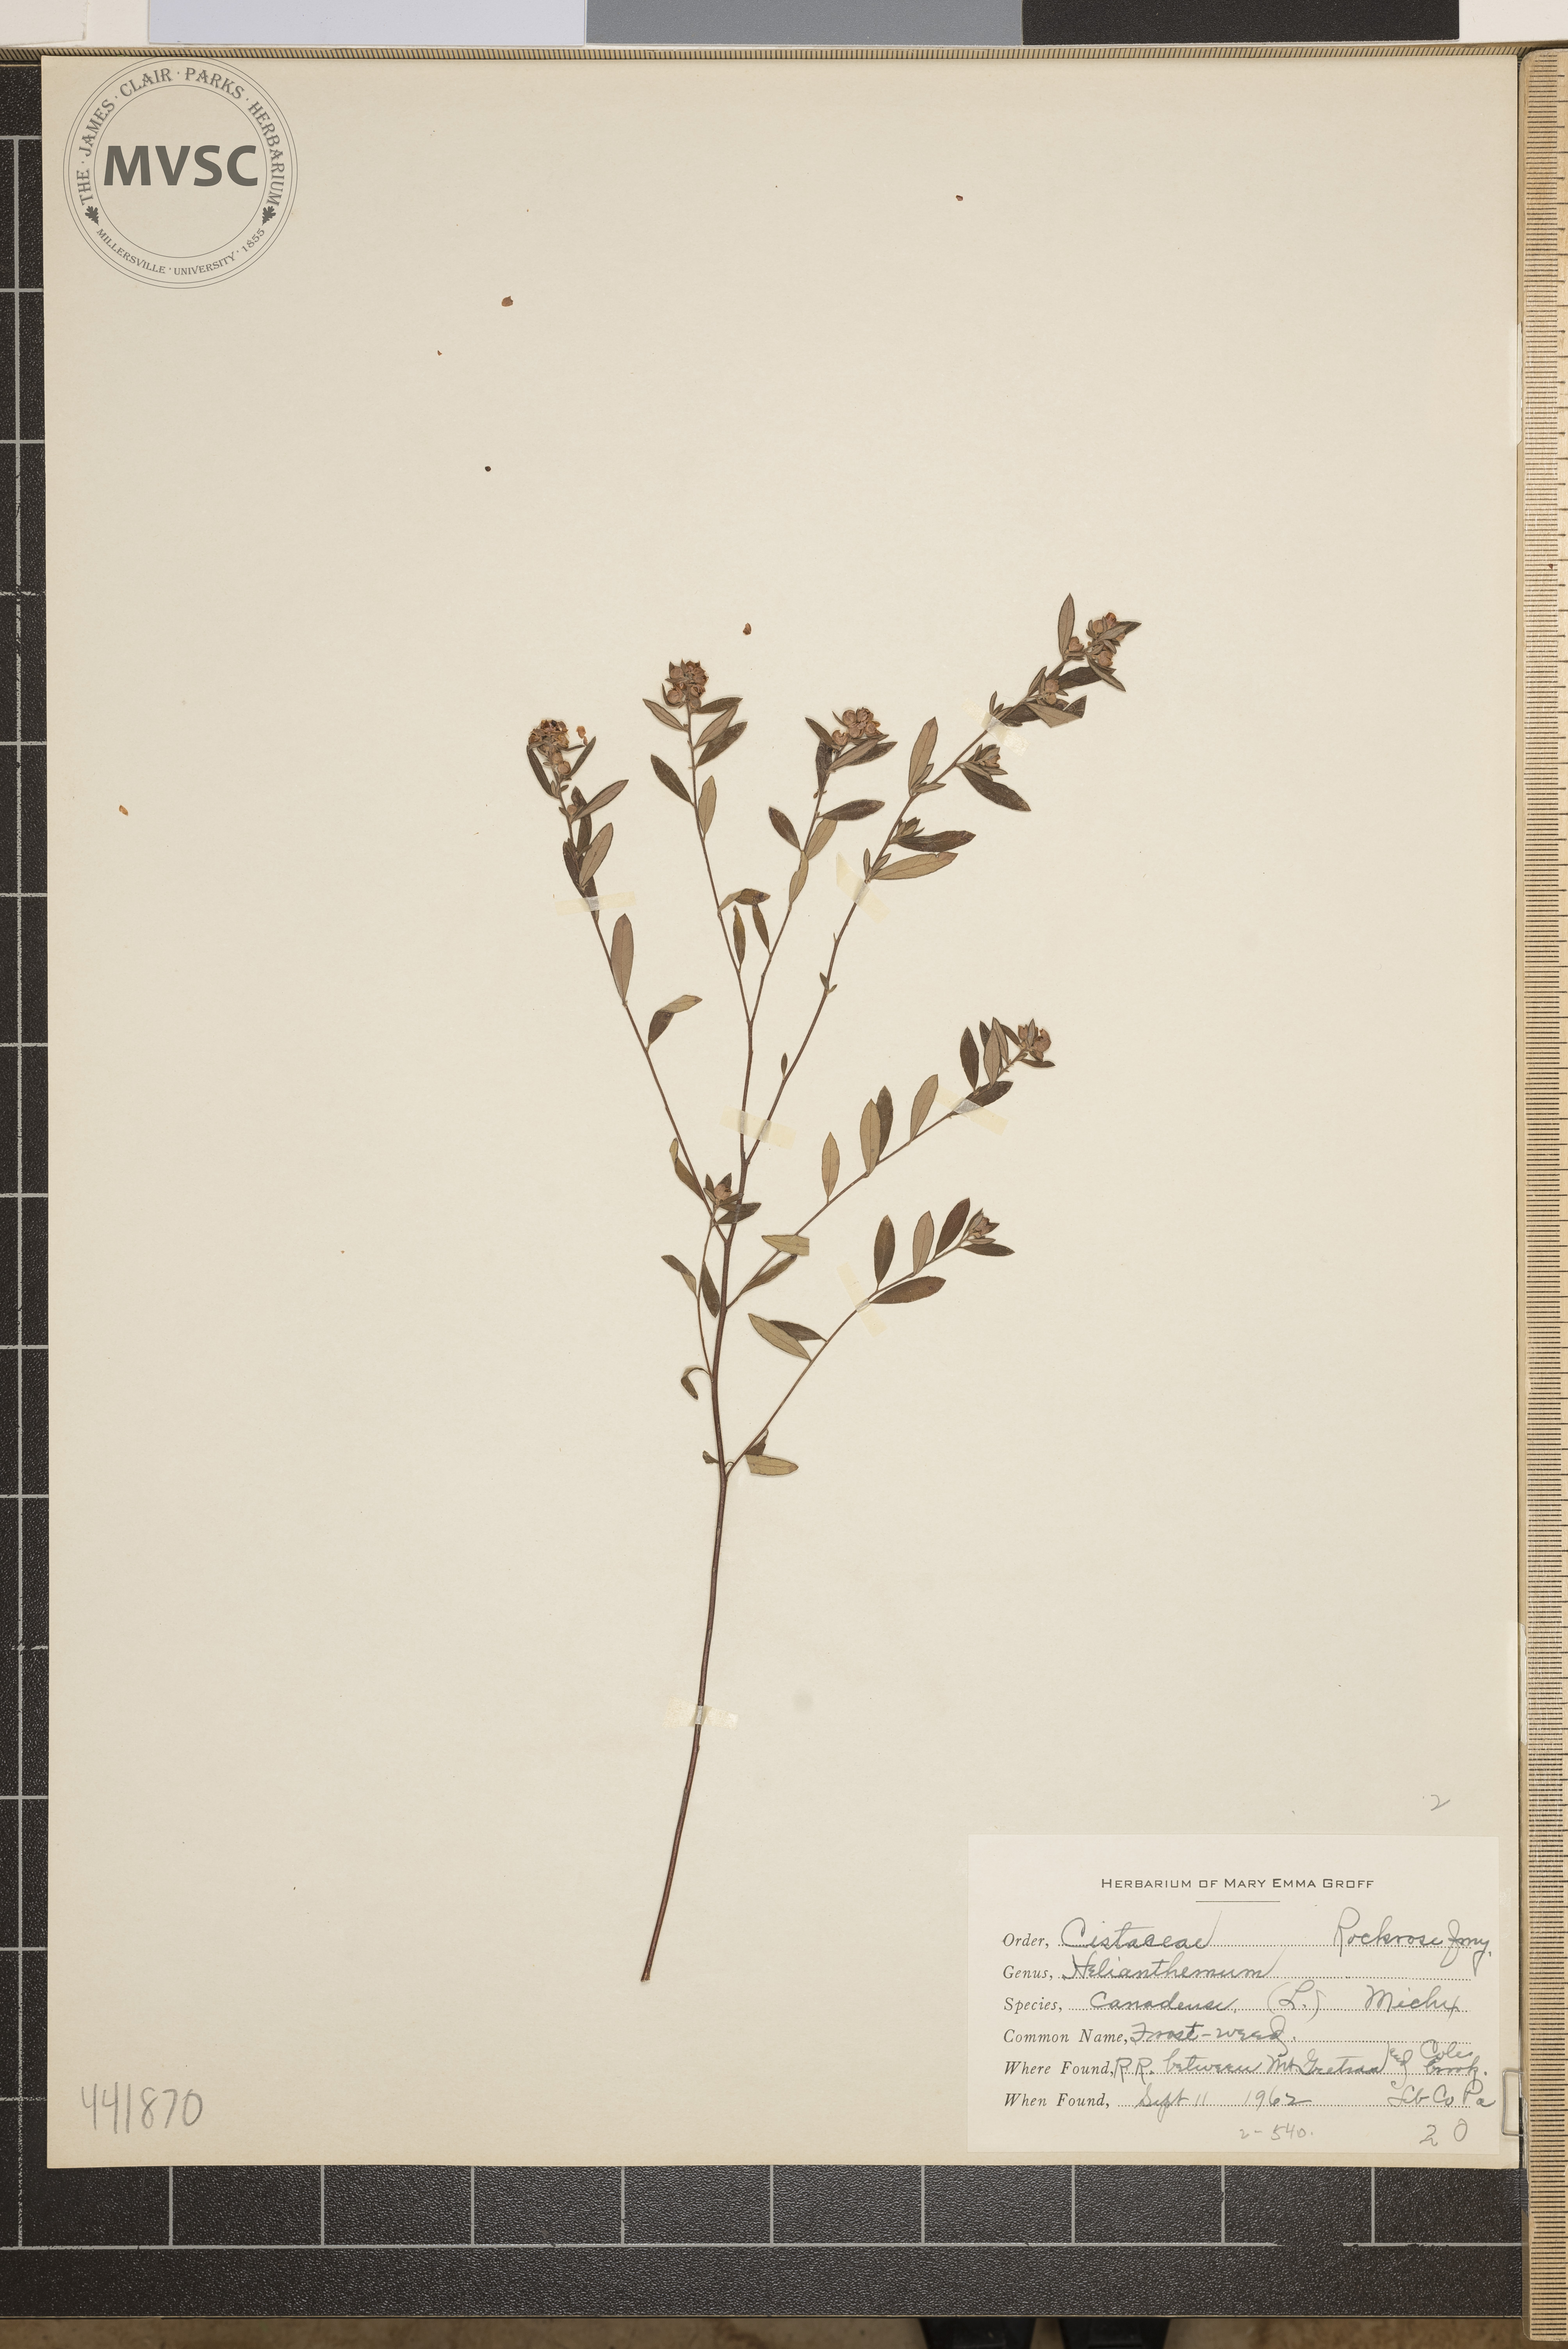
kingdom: Plantae
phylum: Tracheophyta
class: Magnoliopsida
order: Malvales
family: Cistaceae
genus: Crocanthemum
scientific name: Crocanthemum canadense
